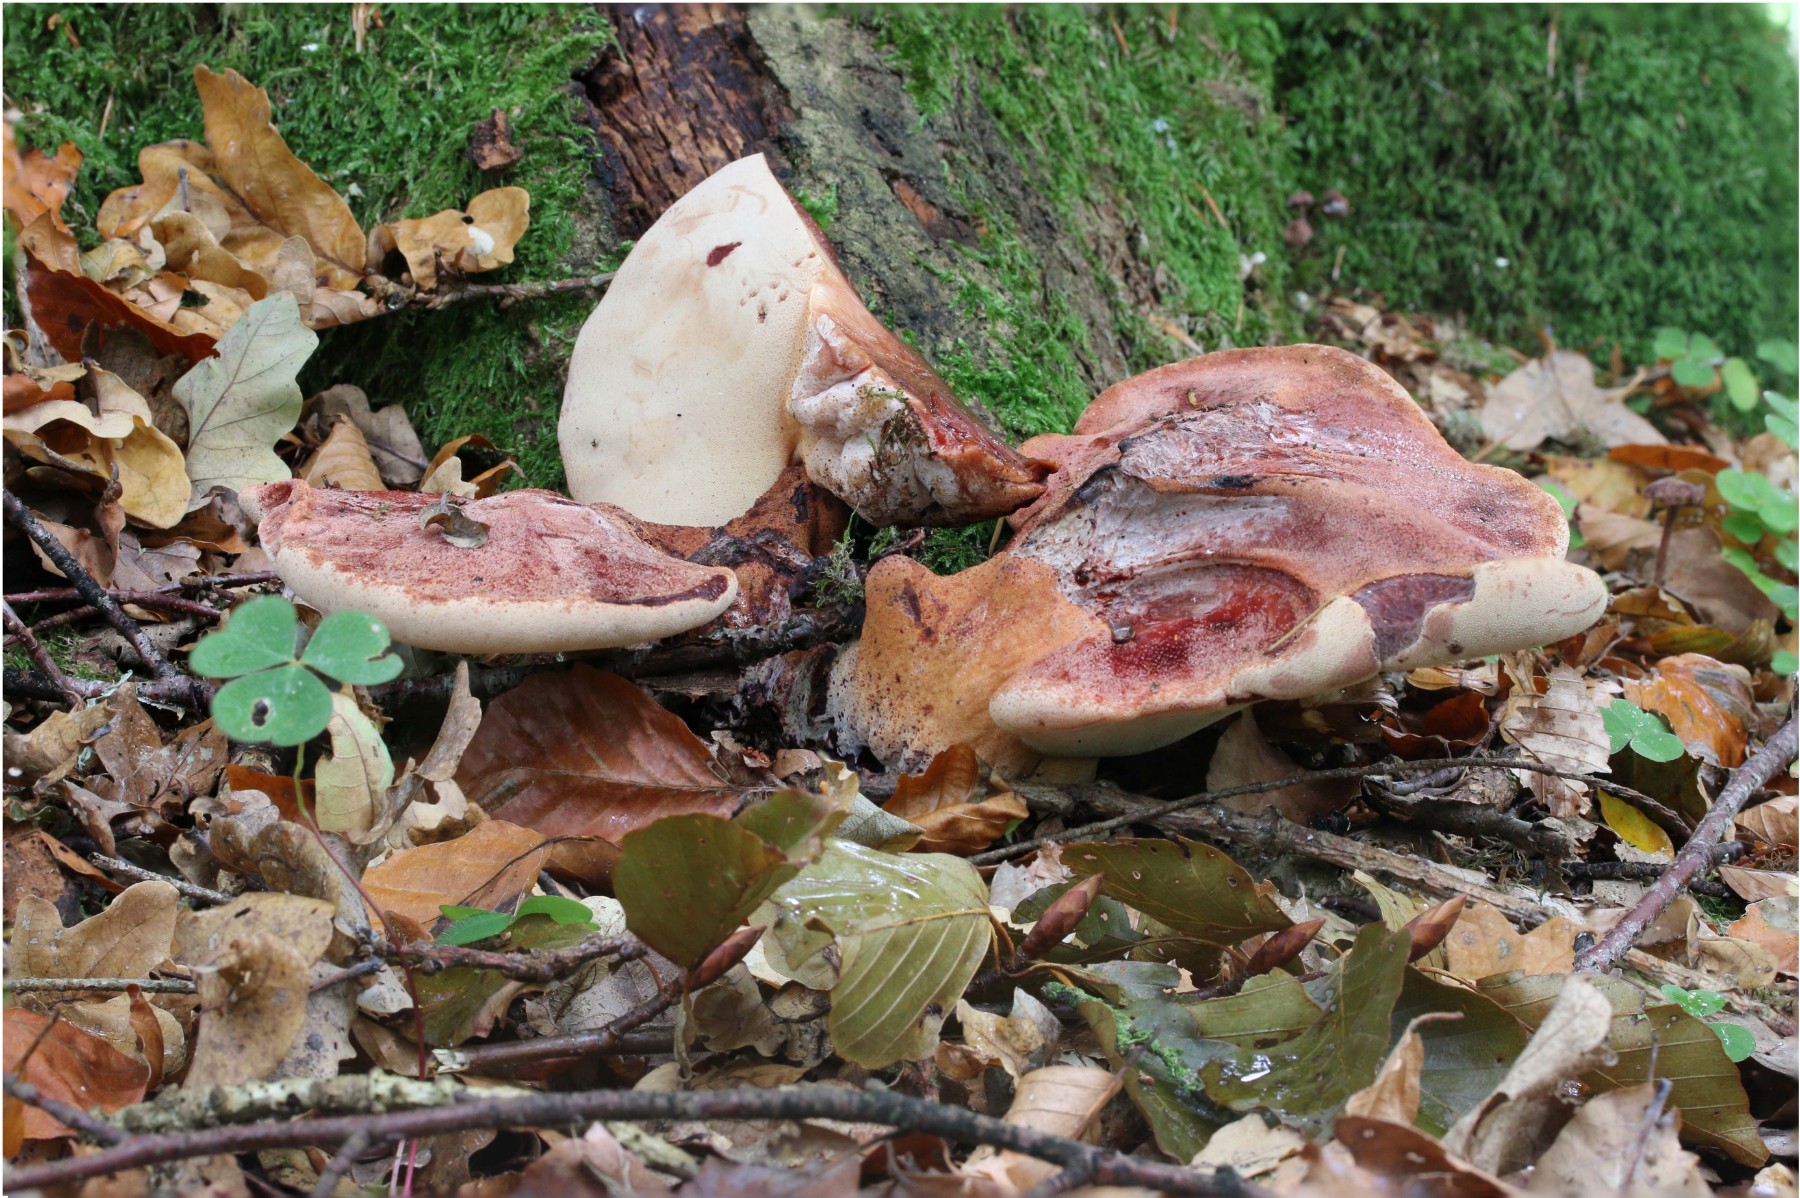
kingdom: Fungi
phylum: Basidiomycota
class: Agaricomycetes
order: Agaricales
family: Fistulinaceae
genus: Fistulina
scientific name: Fistulina hepatica
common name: oksetunge
